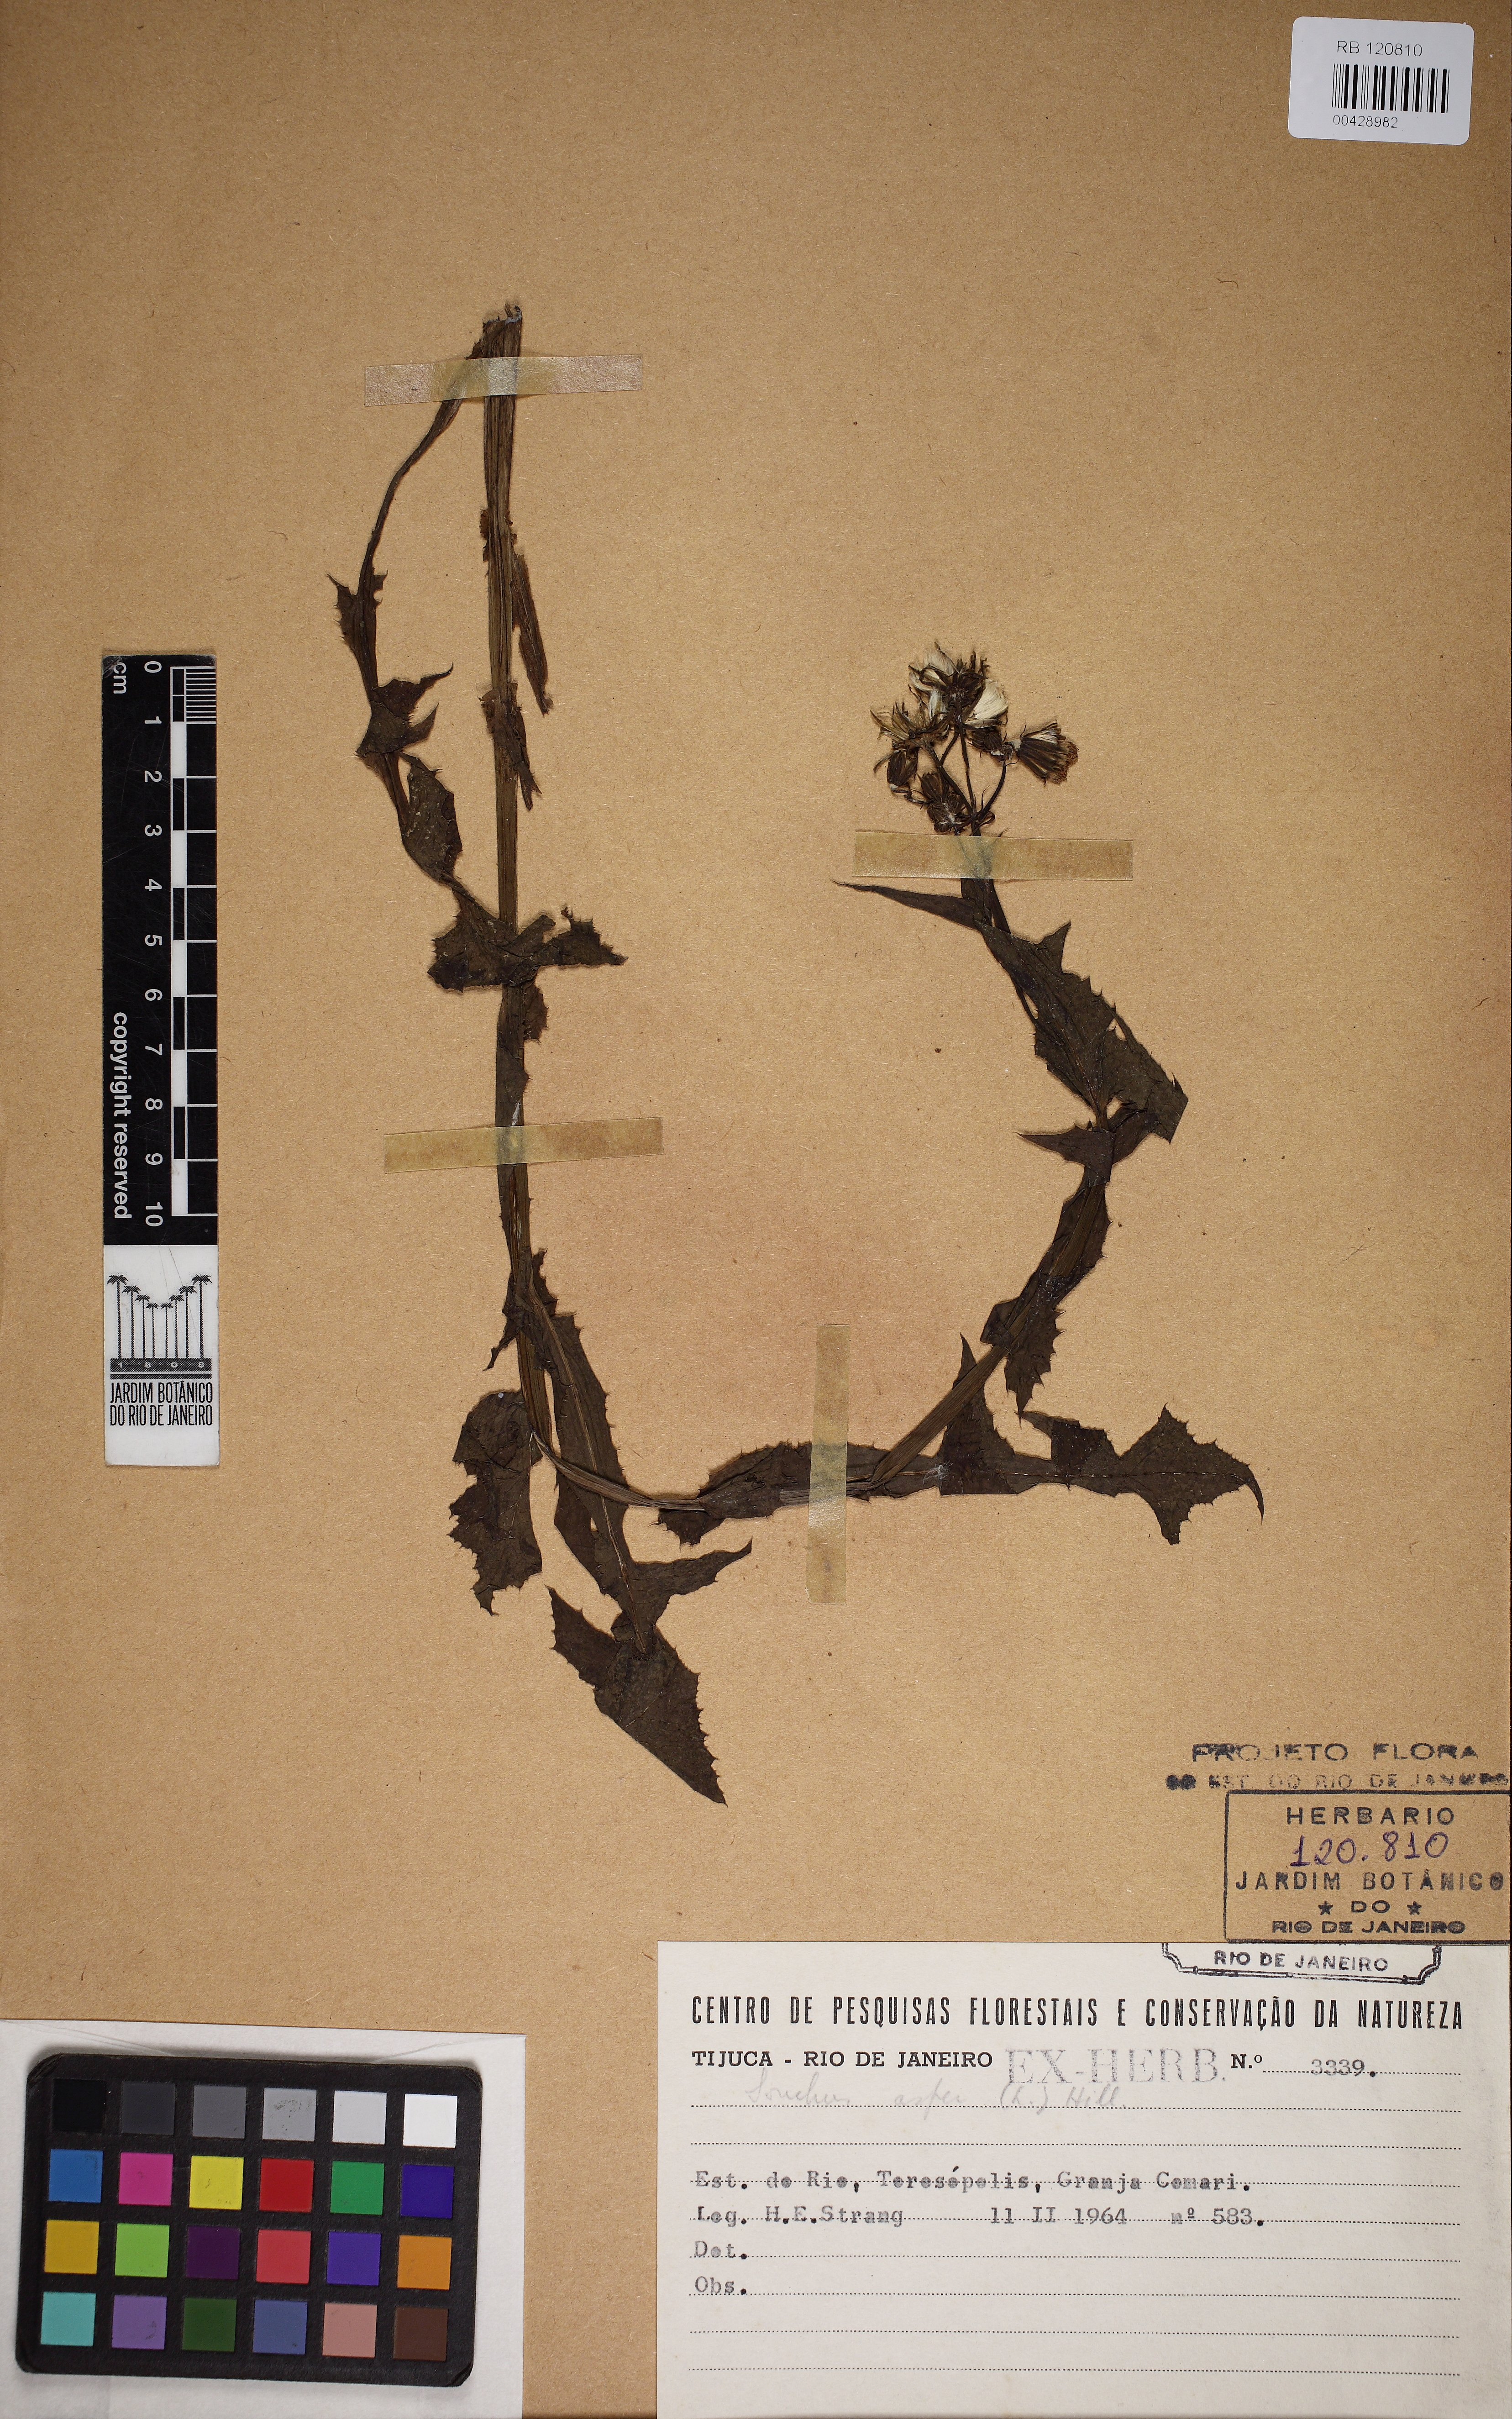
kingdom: Plantae
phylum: Tracheophyta
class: Magnoliopsida
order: Asterales
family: Asteraceae
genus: Sonchus
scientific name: Sonchus asper
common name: Prickly sow-thistle
